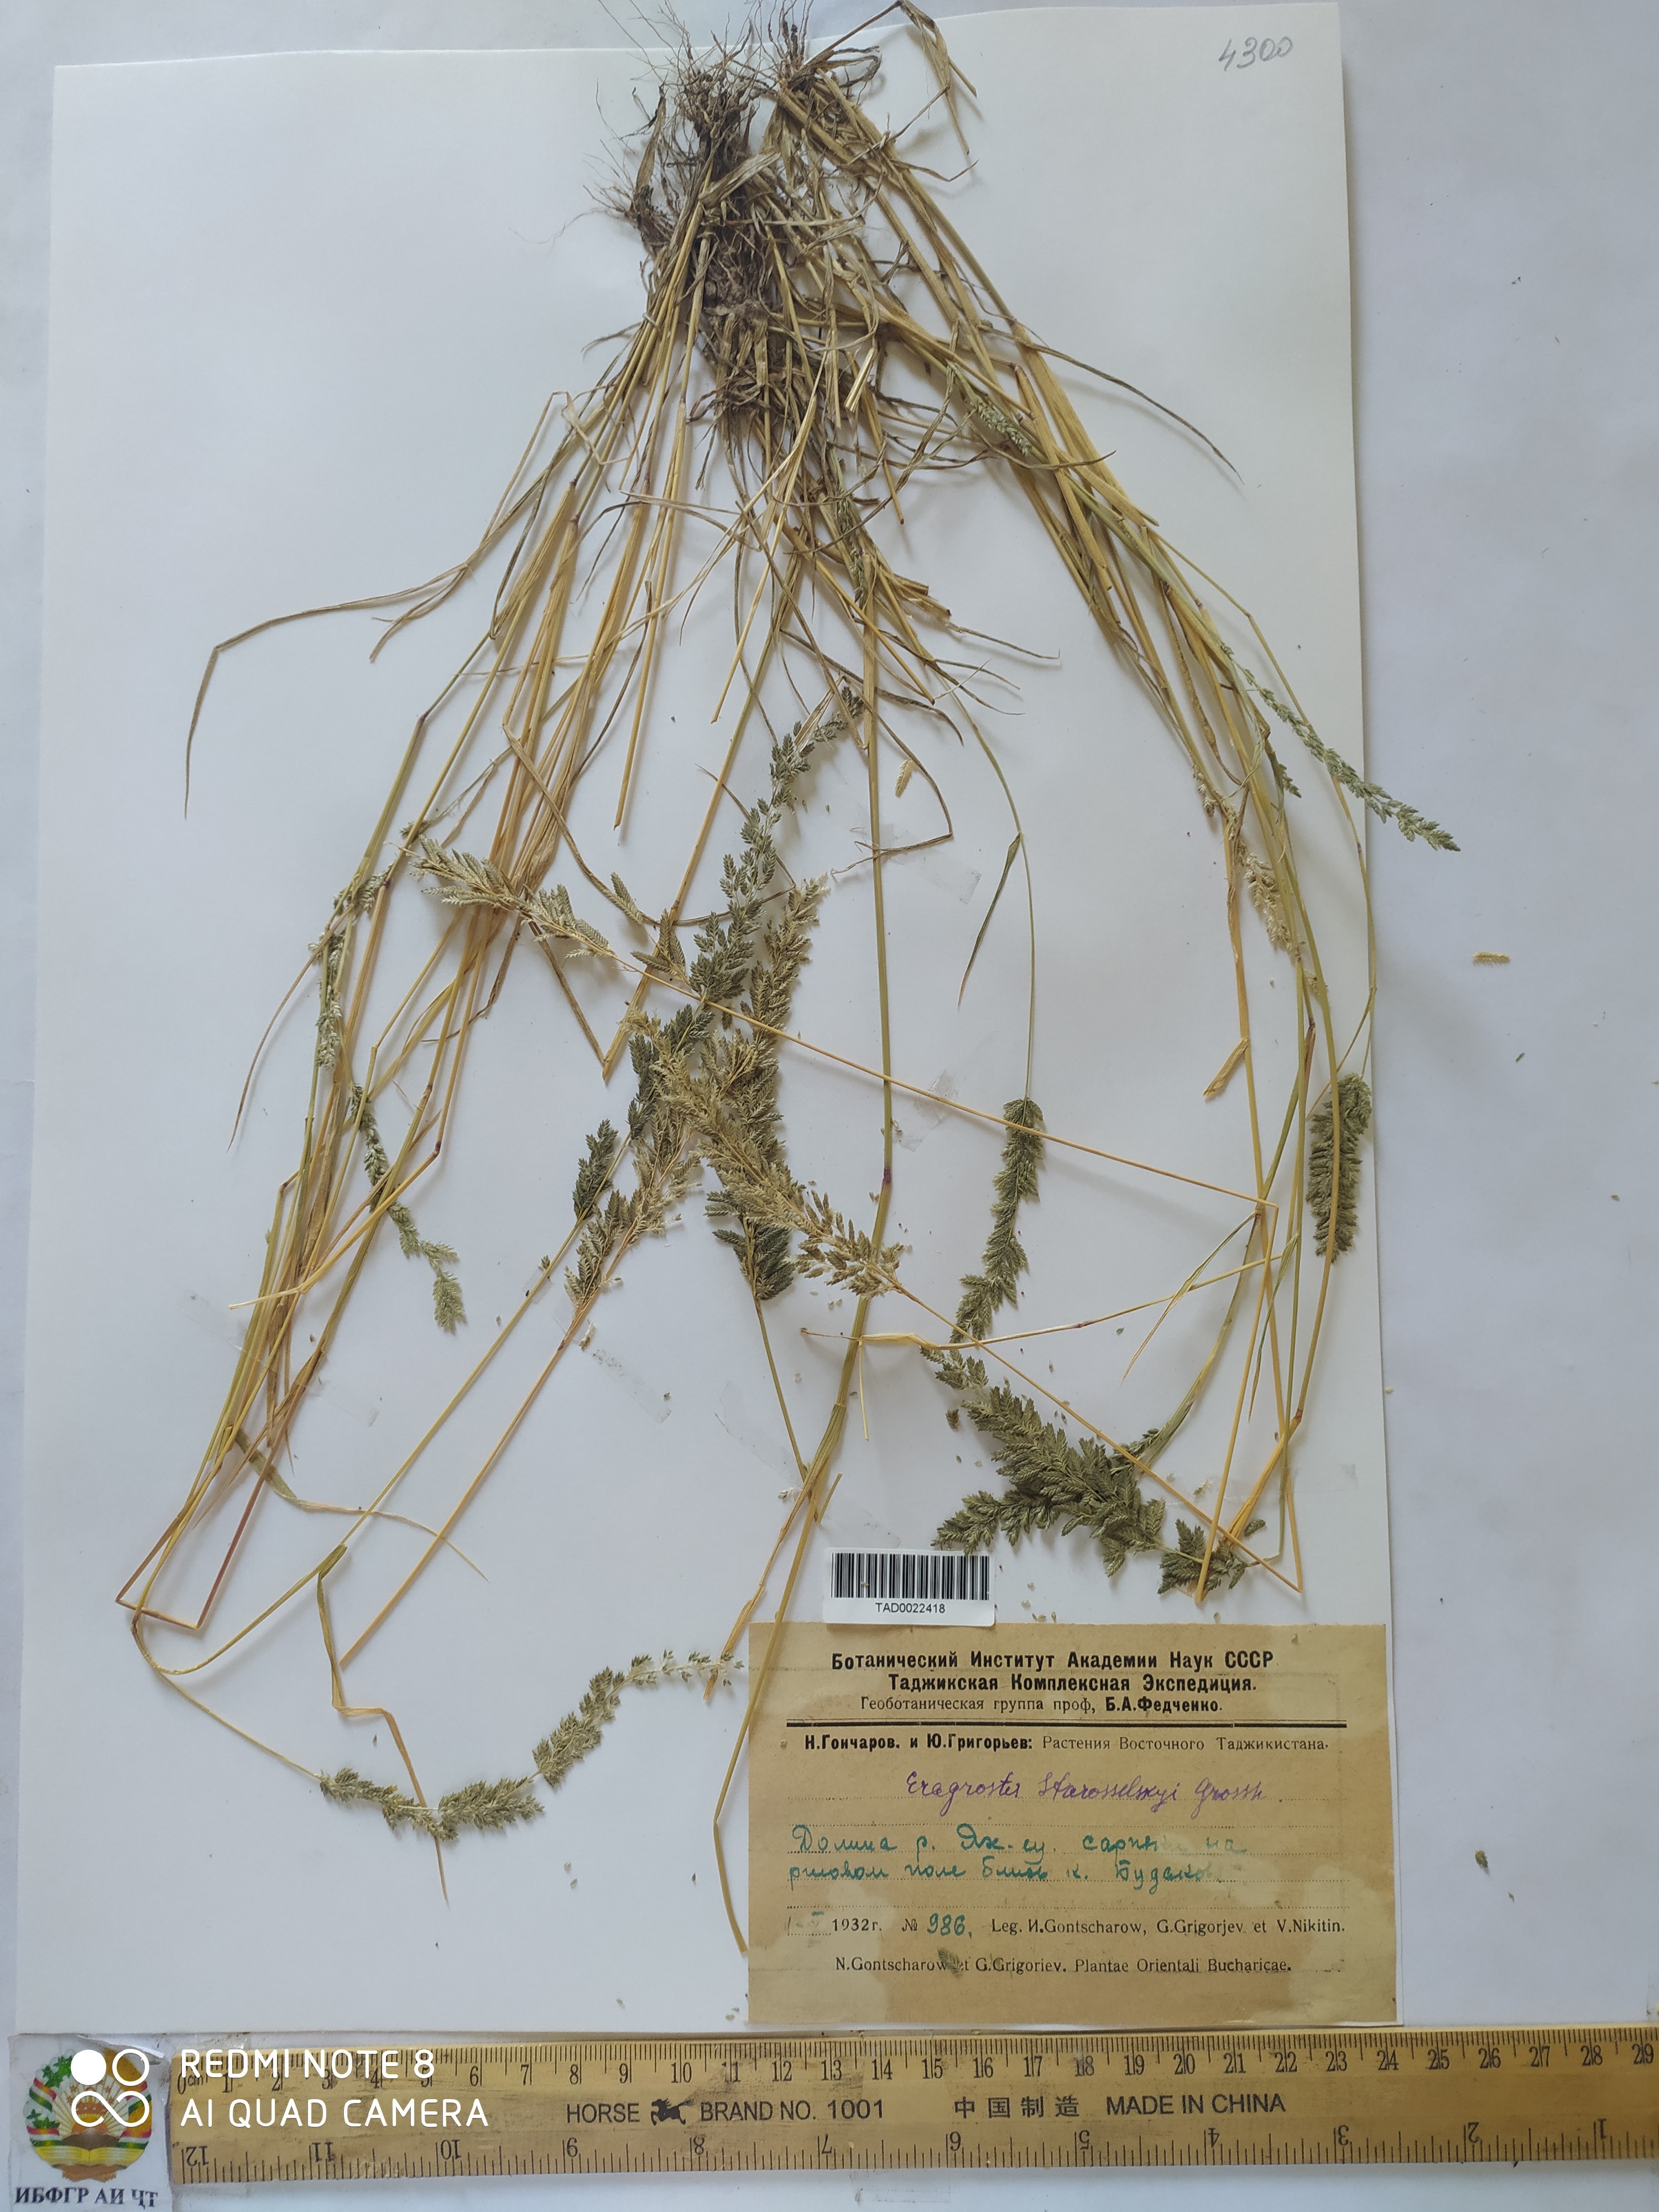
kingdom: Plantae
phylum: Tracheophyta
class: Liliopsida
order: Poales
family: Poaceae
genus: Eragrostis
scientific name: Eragrostis cilianensis
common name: Stinkgrass
